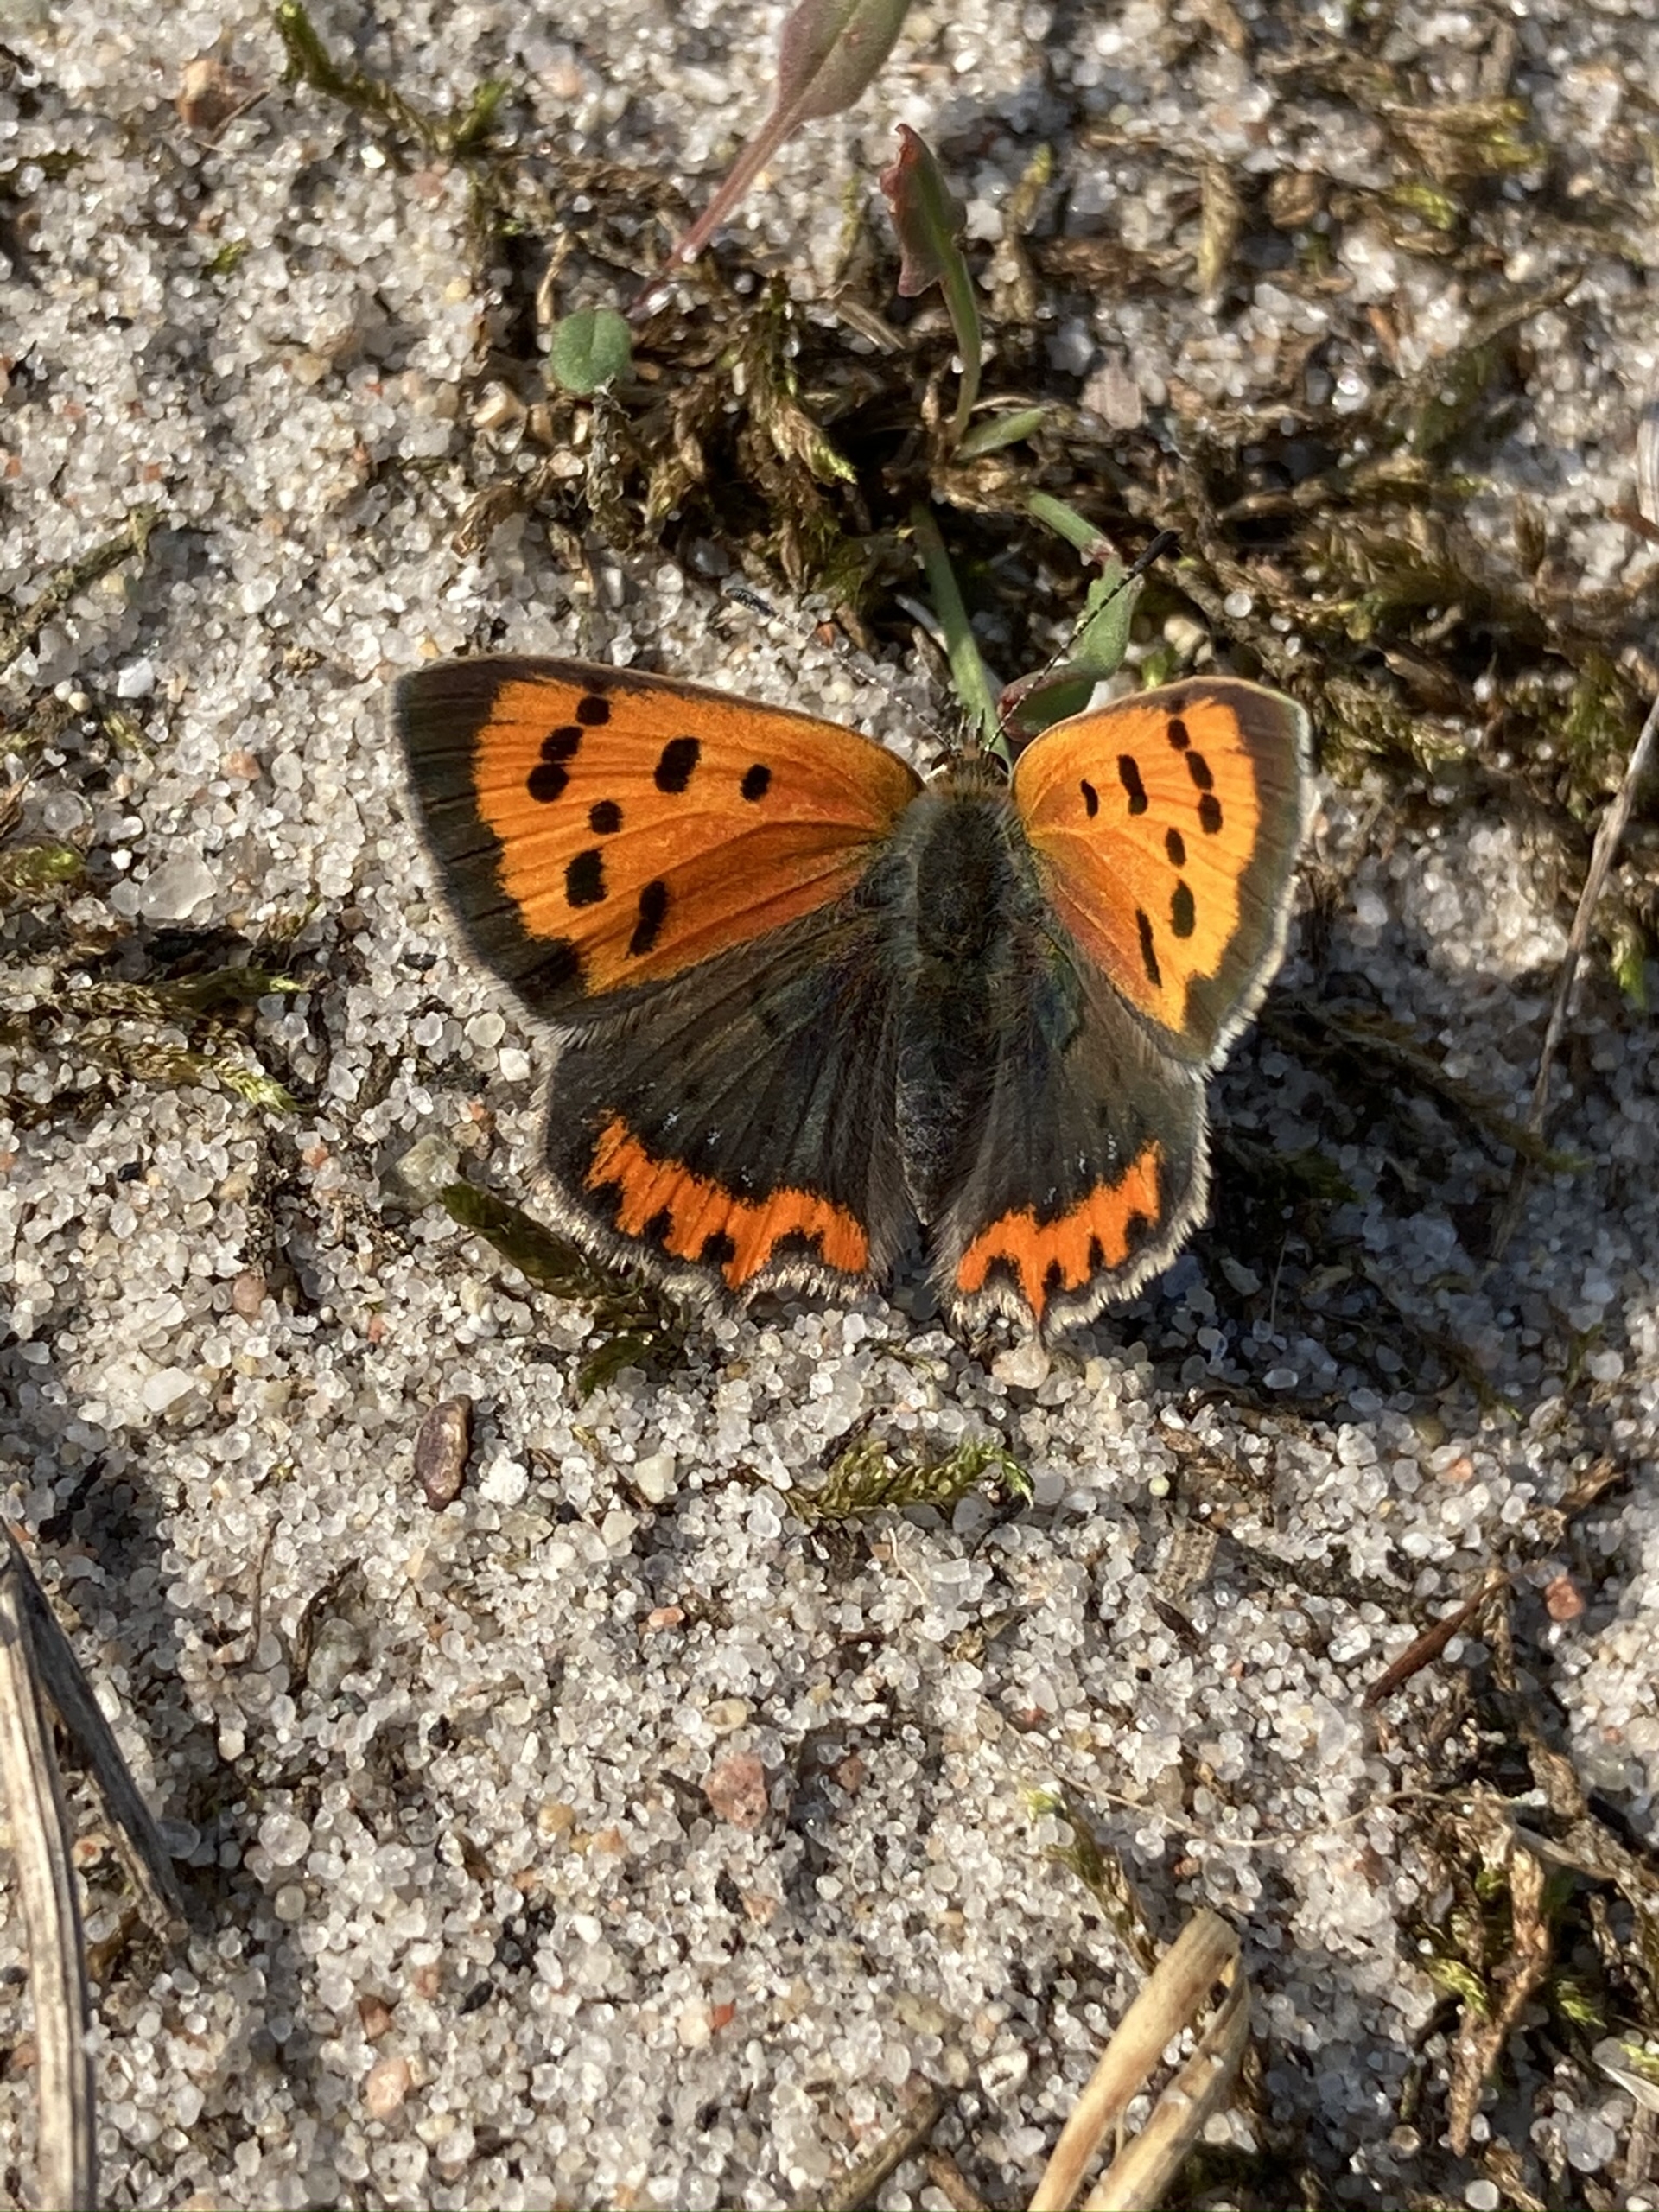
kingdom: Animalia
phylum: Arthropoda
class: Insecta
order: Lepidoptera
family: Lycaenidae
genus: Lycaena
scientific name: Lycaena phlaeas
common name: Lille ildfugl
